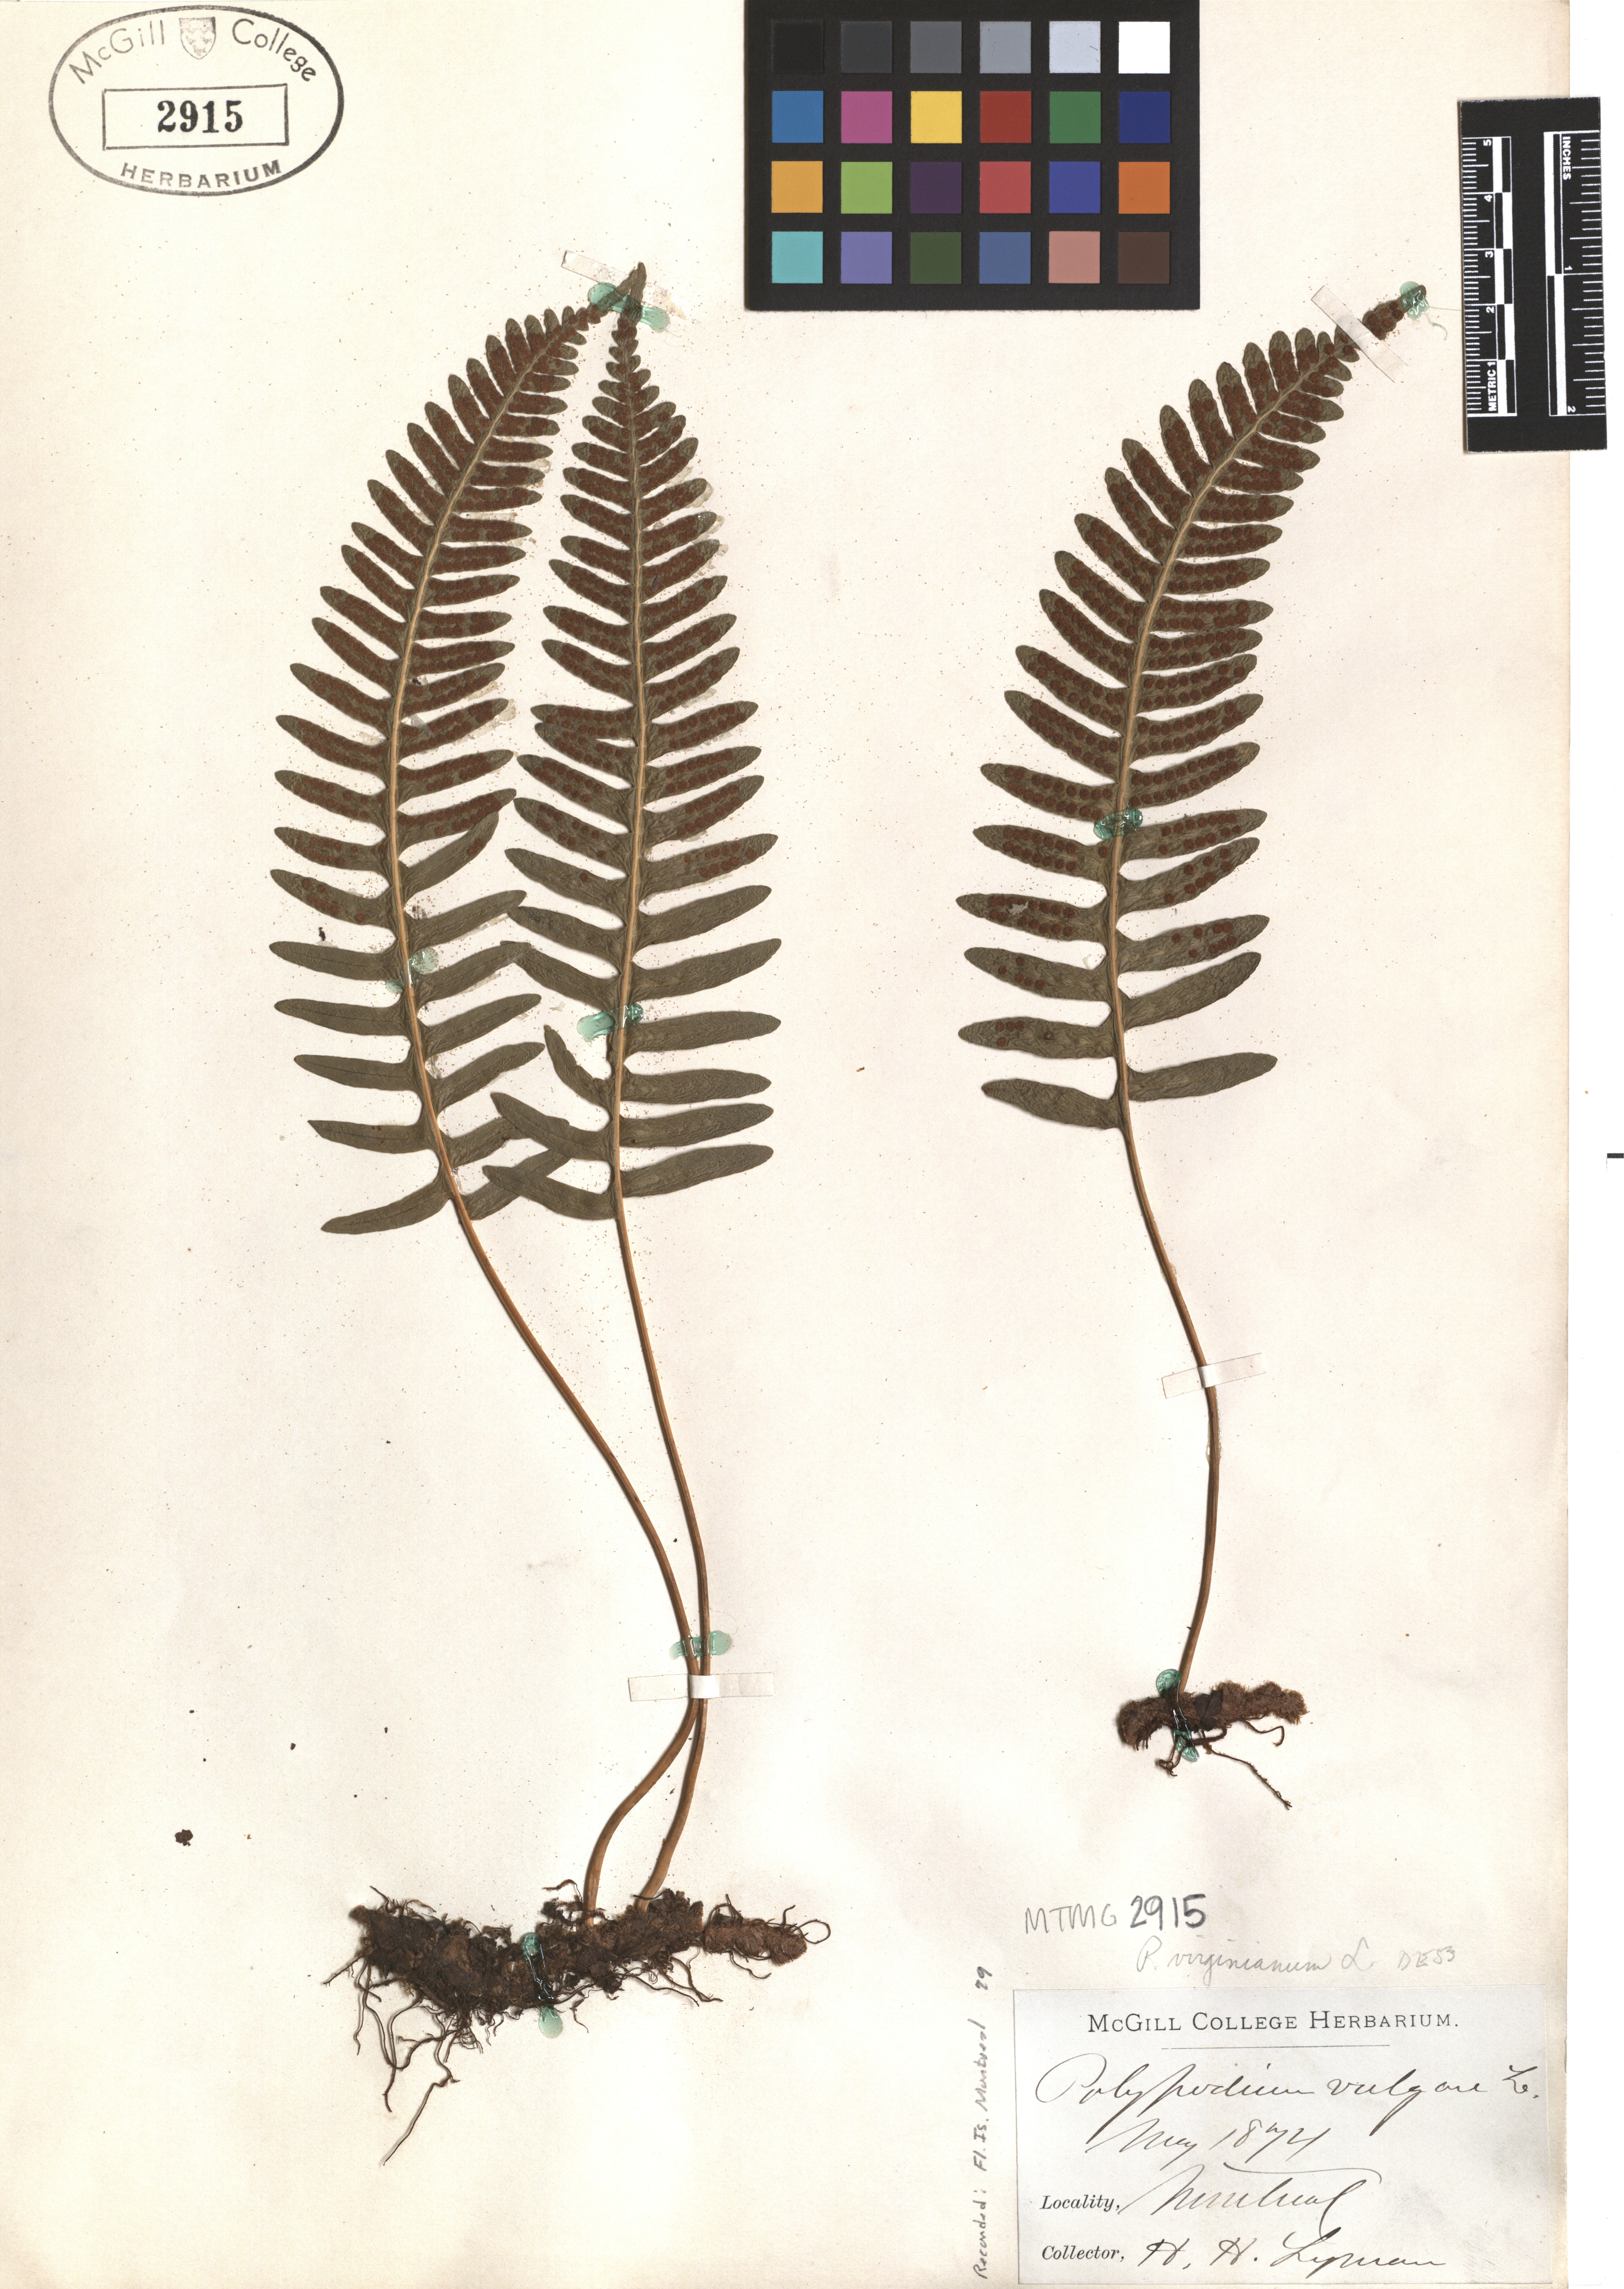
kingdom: Plantae
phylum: Tracheophyta
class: Polypodiopsida
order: Polypodiales
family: Polypodiaceae
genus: Polypodium
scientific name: Polypodium virginianum
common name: American wall fern
